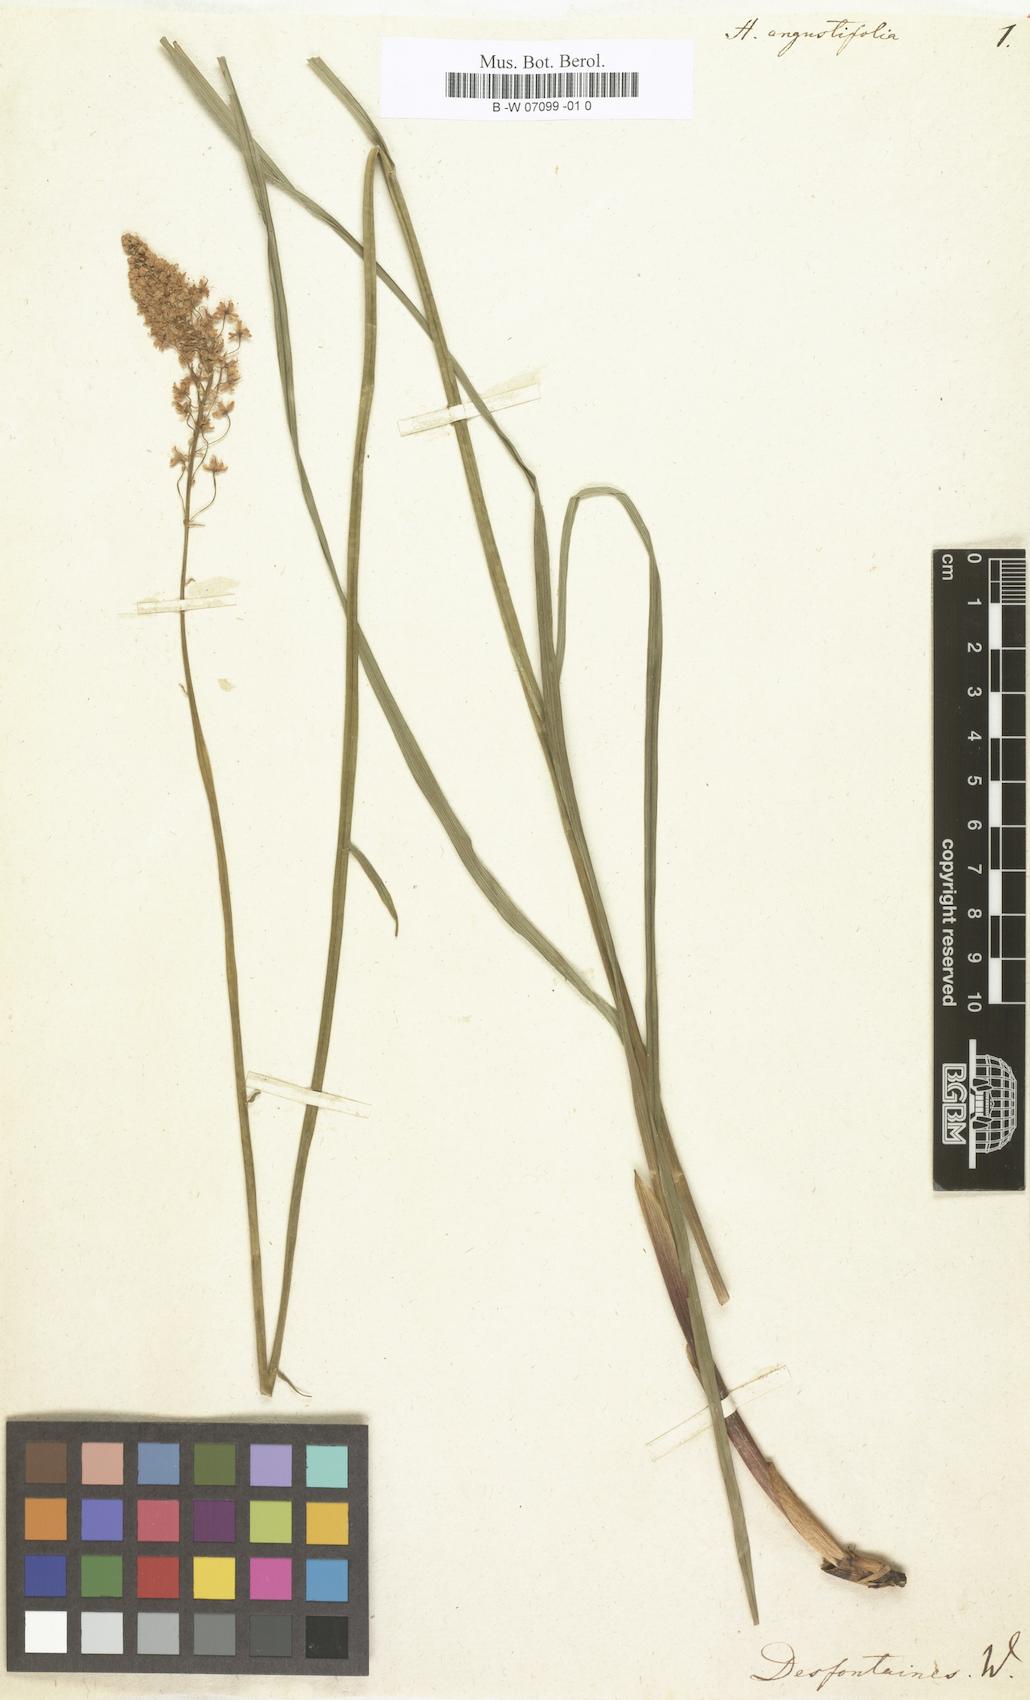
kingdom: Plantae
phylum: Tracheophyta
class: Liliopsida
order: Liliales
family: Melanthiaceae
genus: Stenanthium
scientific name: Stenanthium densum
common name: Crow-poison
